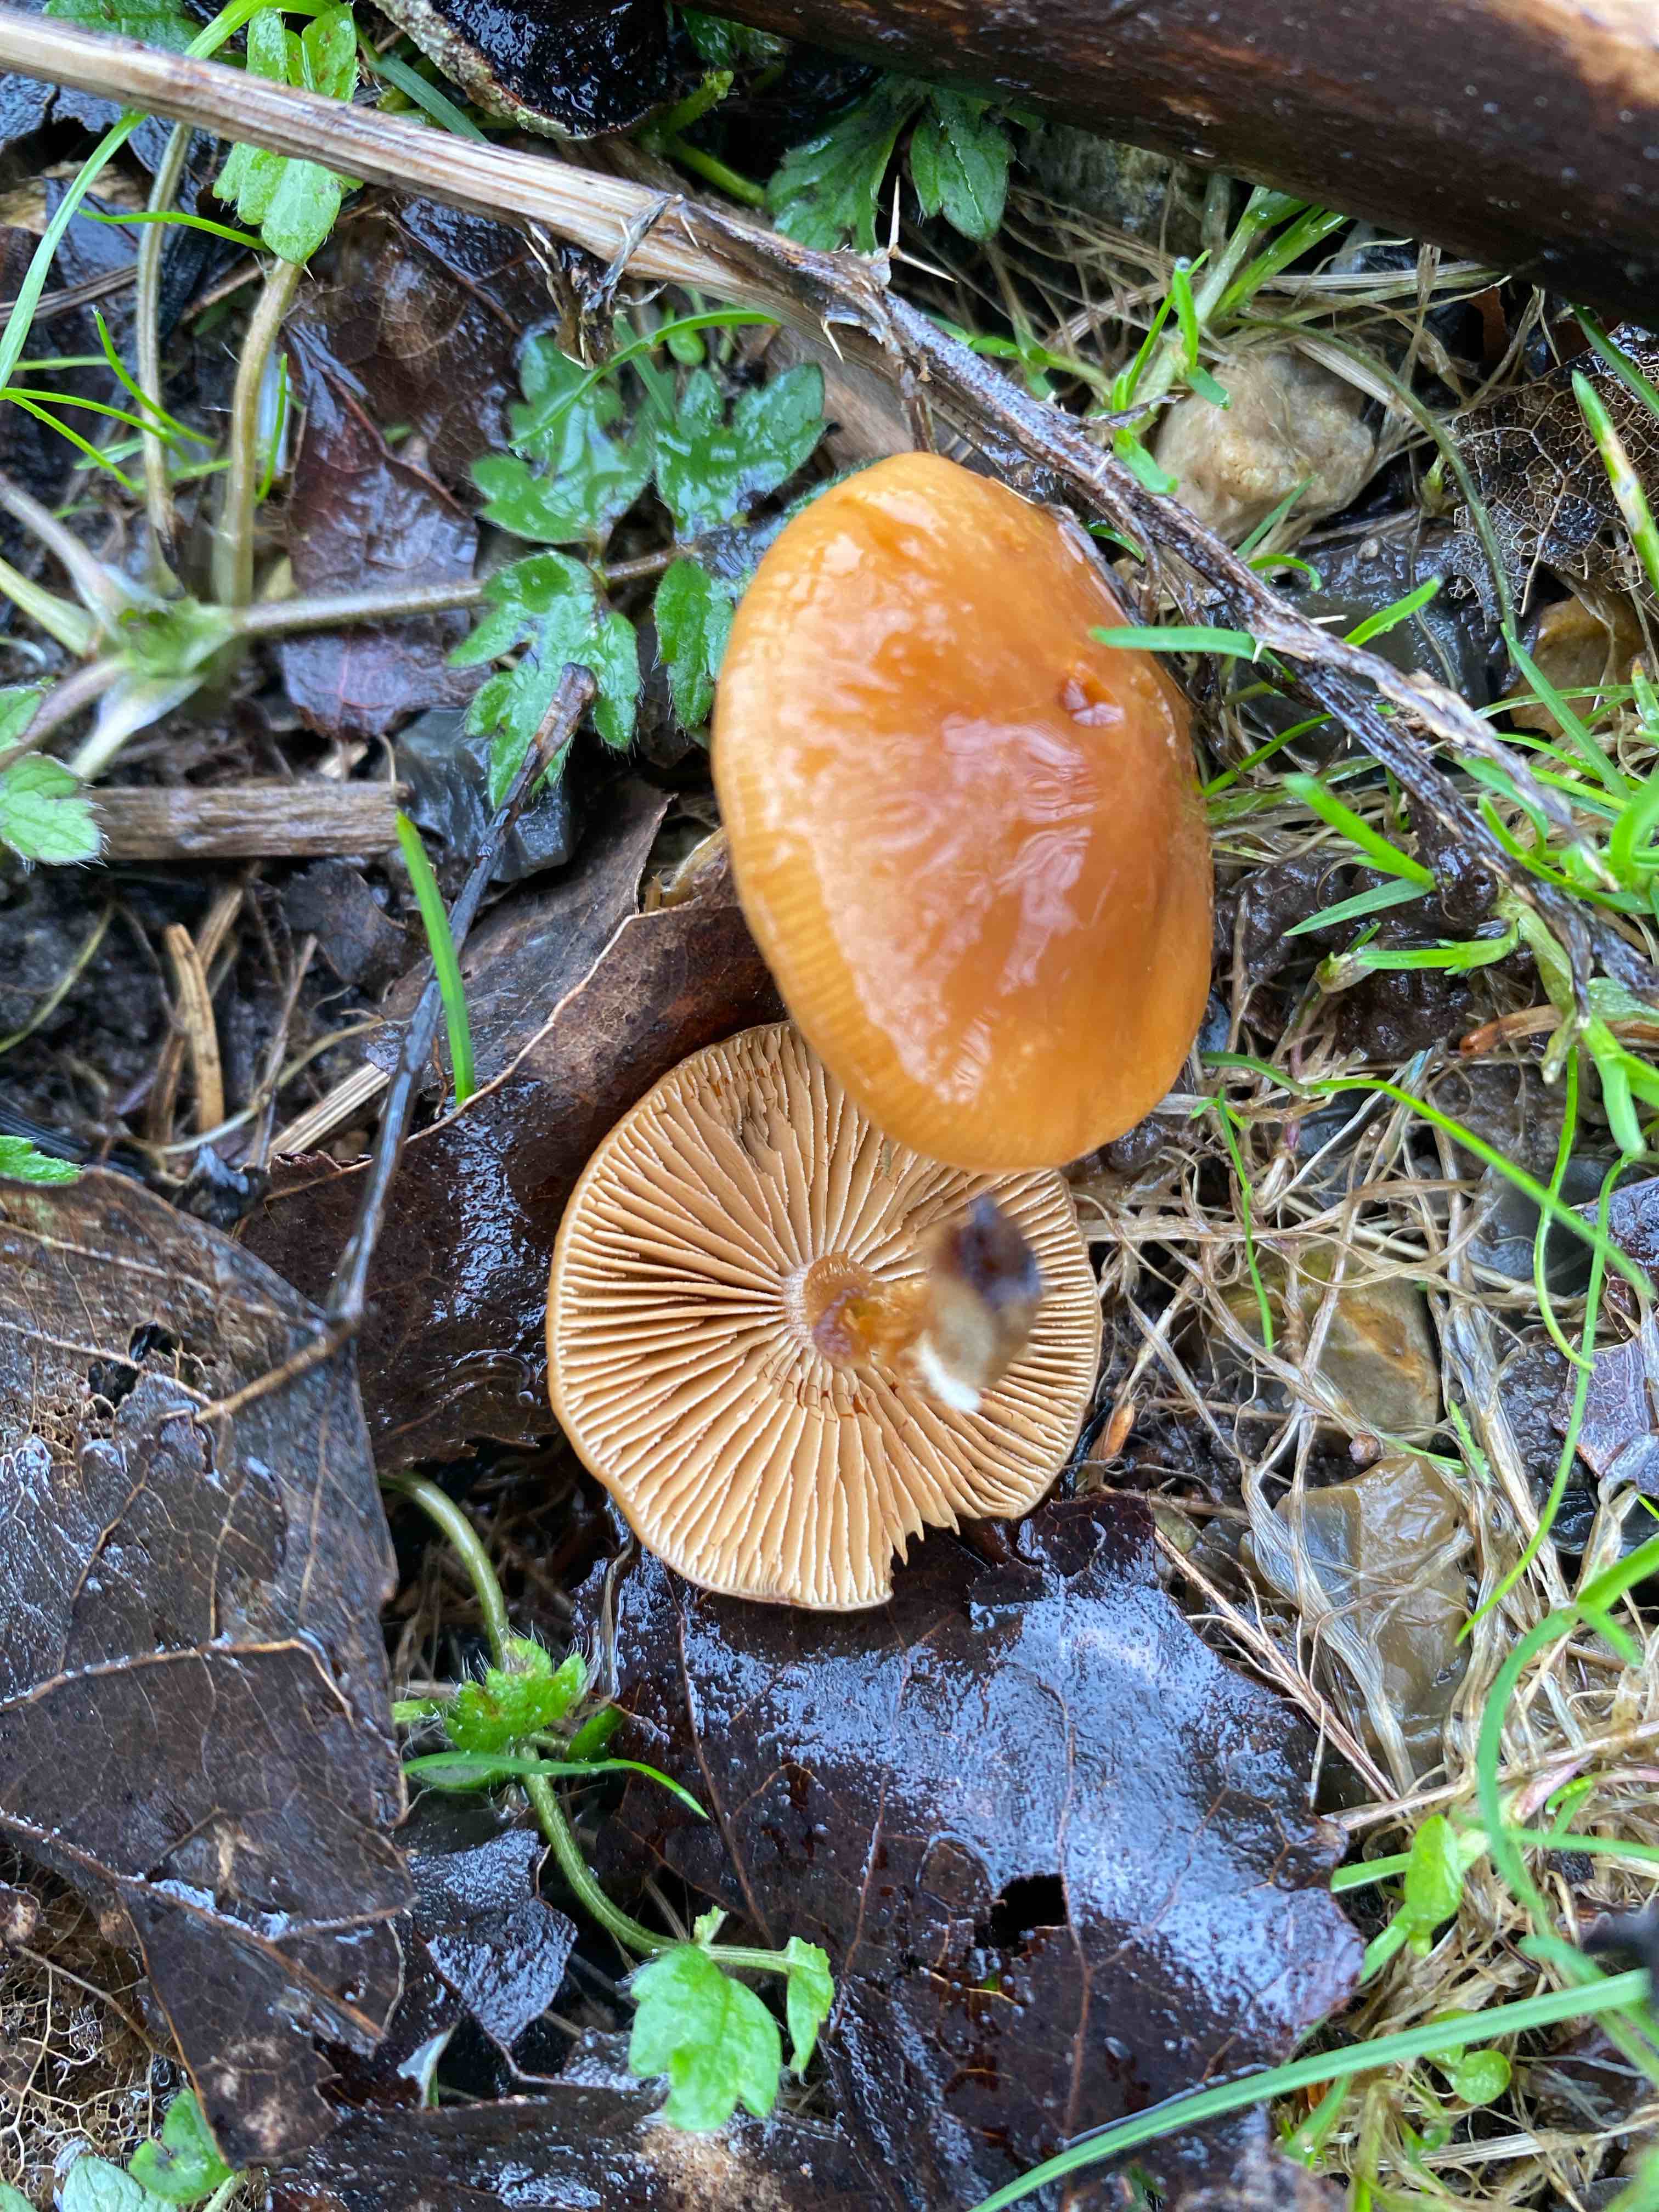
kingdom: Fungi
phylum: Basidiomycota
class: Agaricomycetes
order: Agaricales
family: Tubariaceae
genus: Tubaria
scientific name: Tubaria furfuracea
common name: kliddet fnughat
